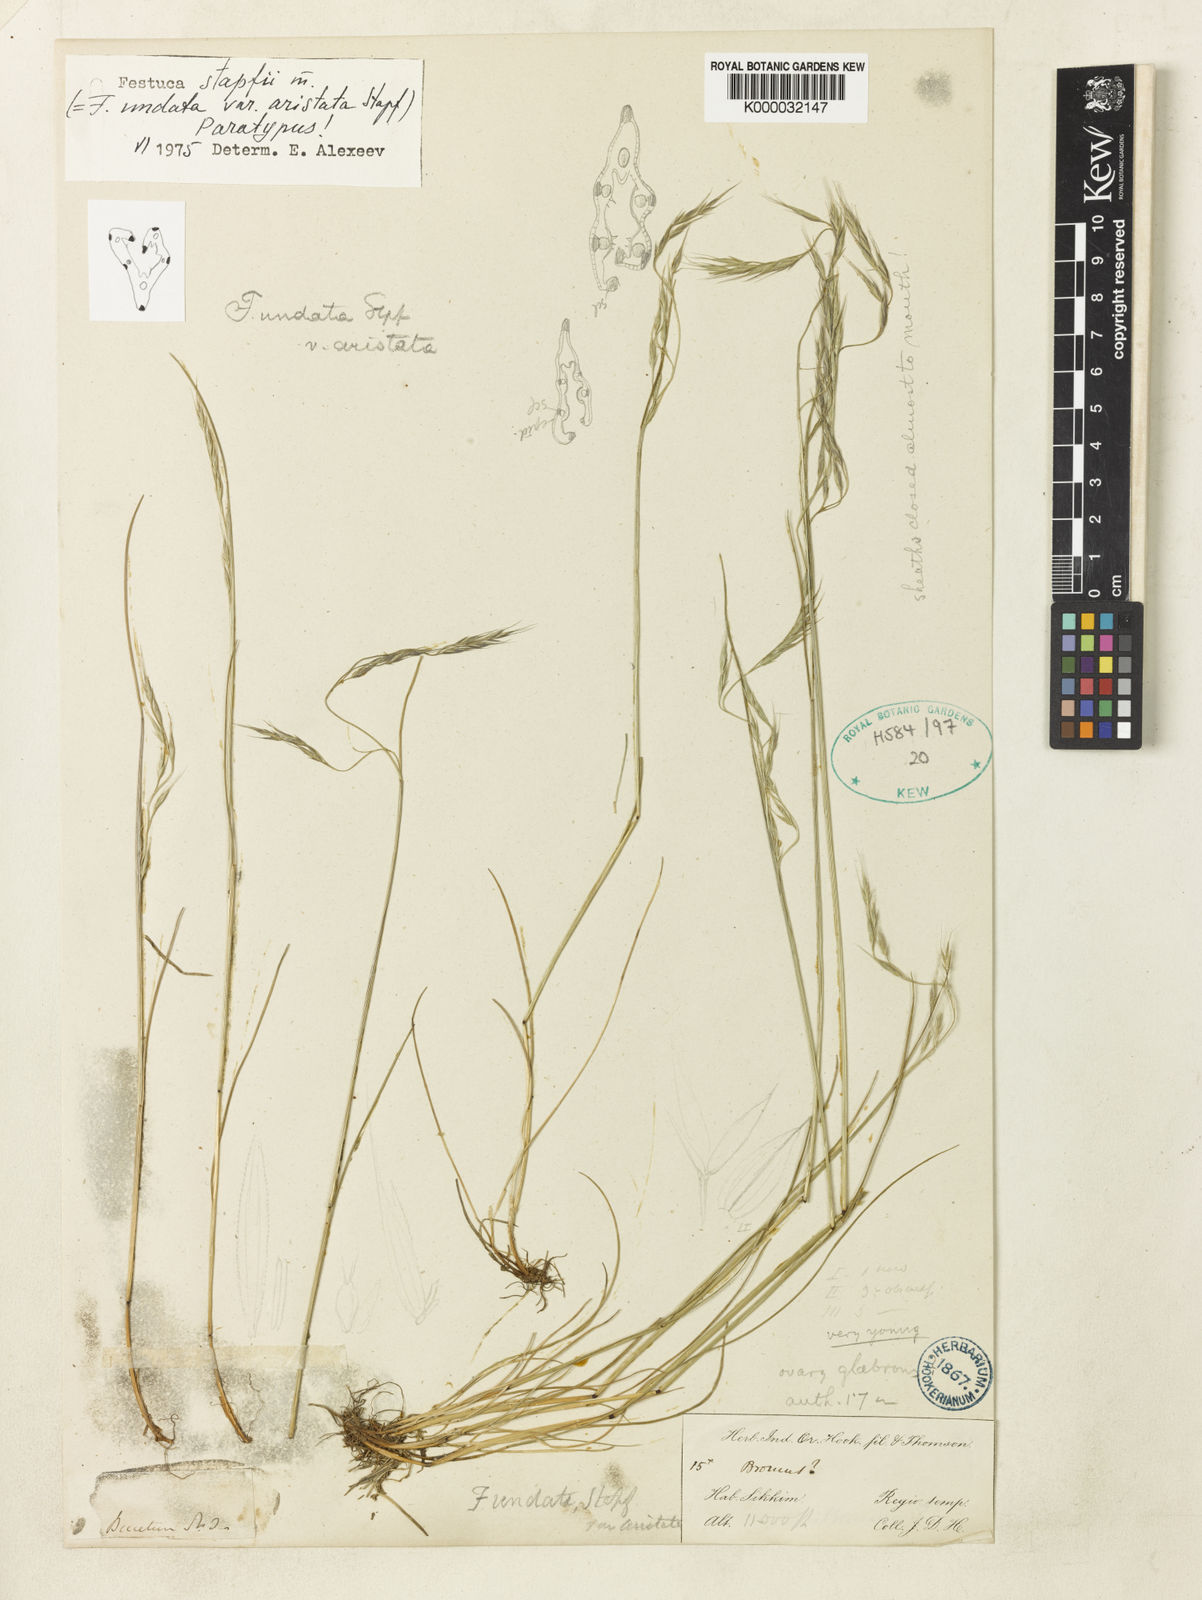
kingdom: Plantae
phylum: Tracheophyta
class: Liliopsida
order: Poales
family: Poaceae
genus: Festuca
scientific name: Festuca undata
